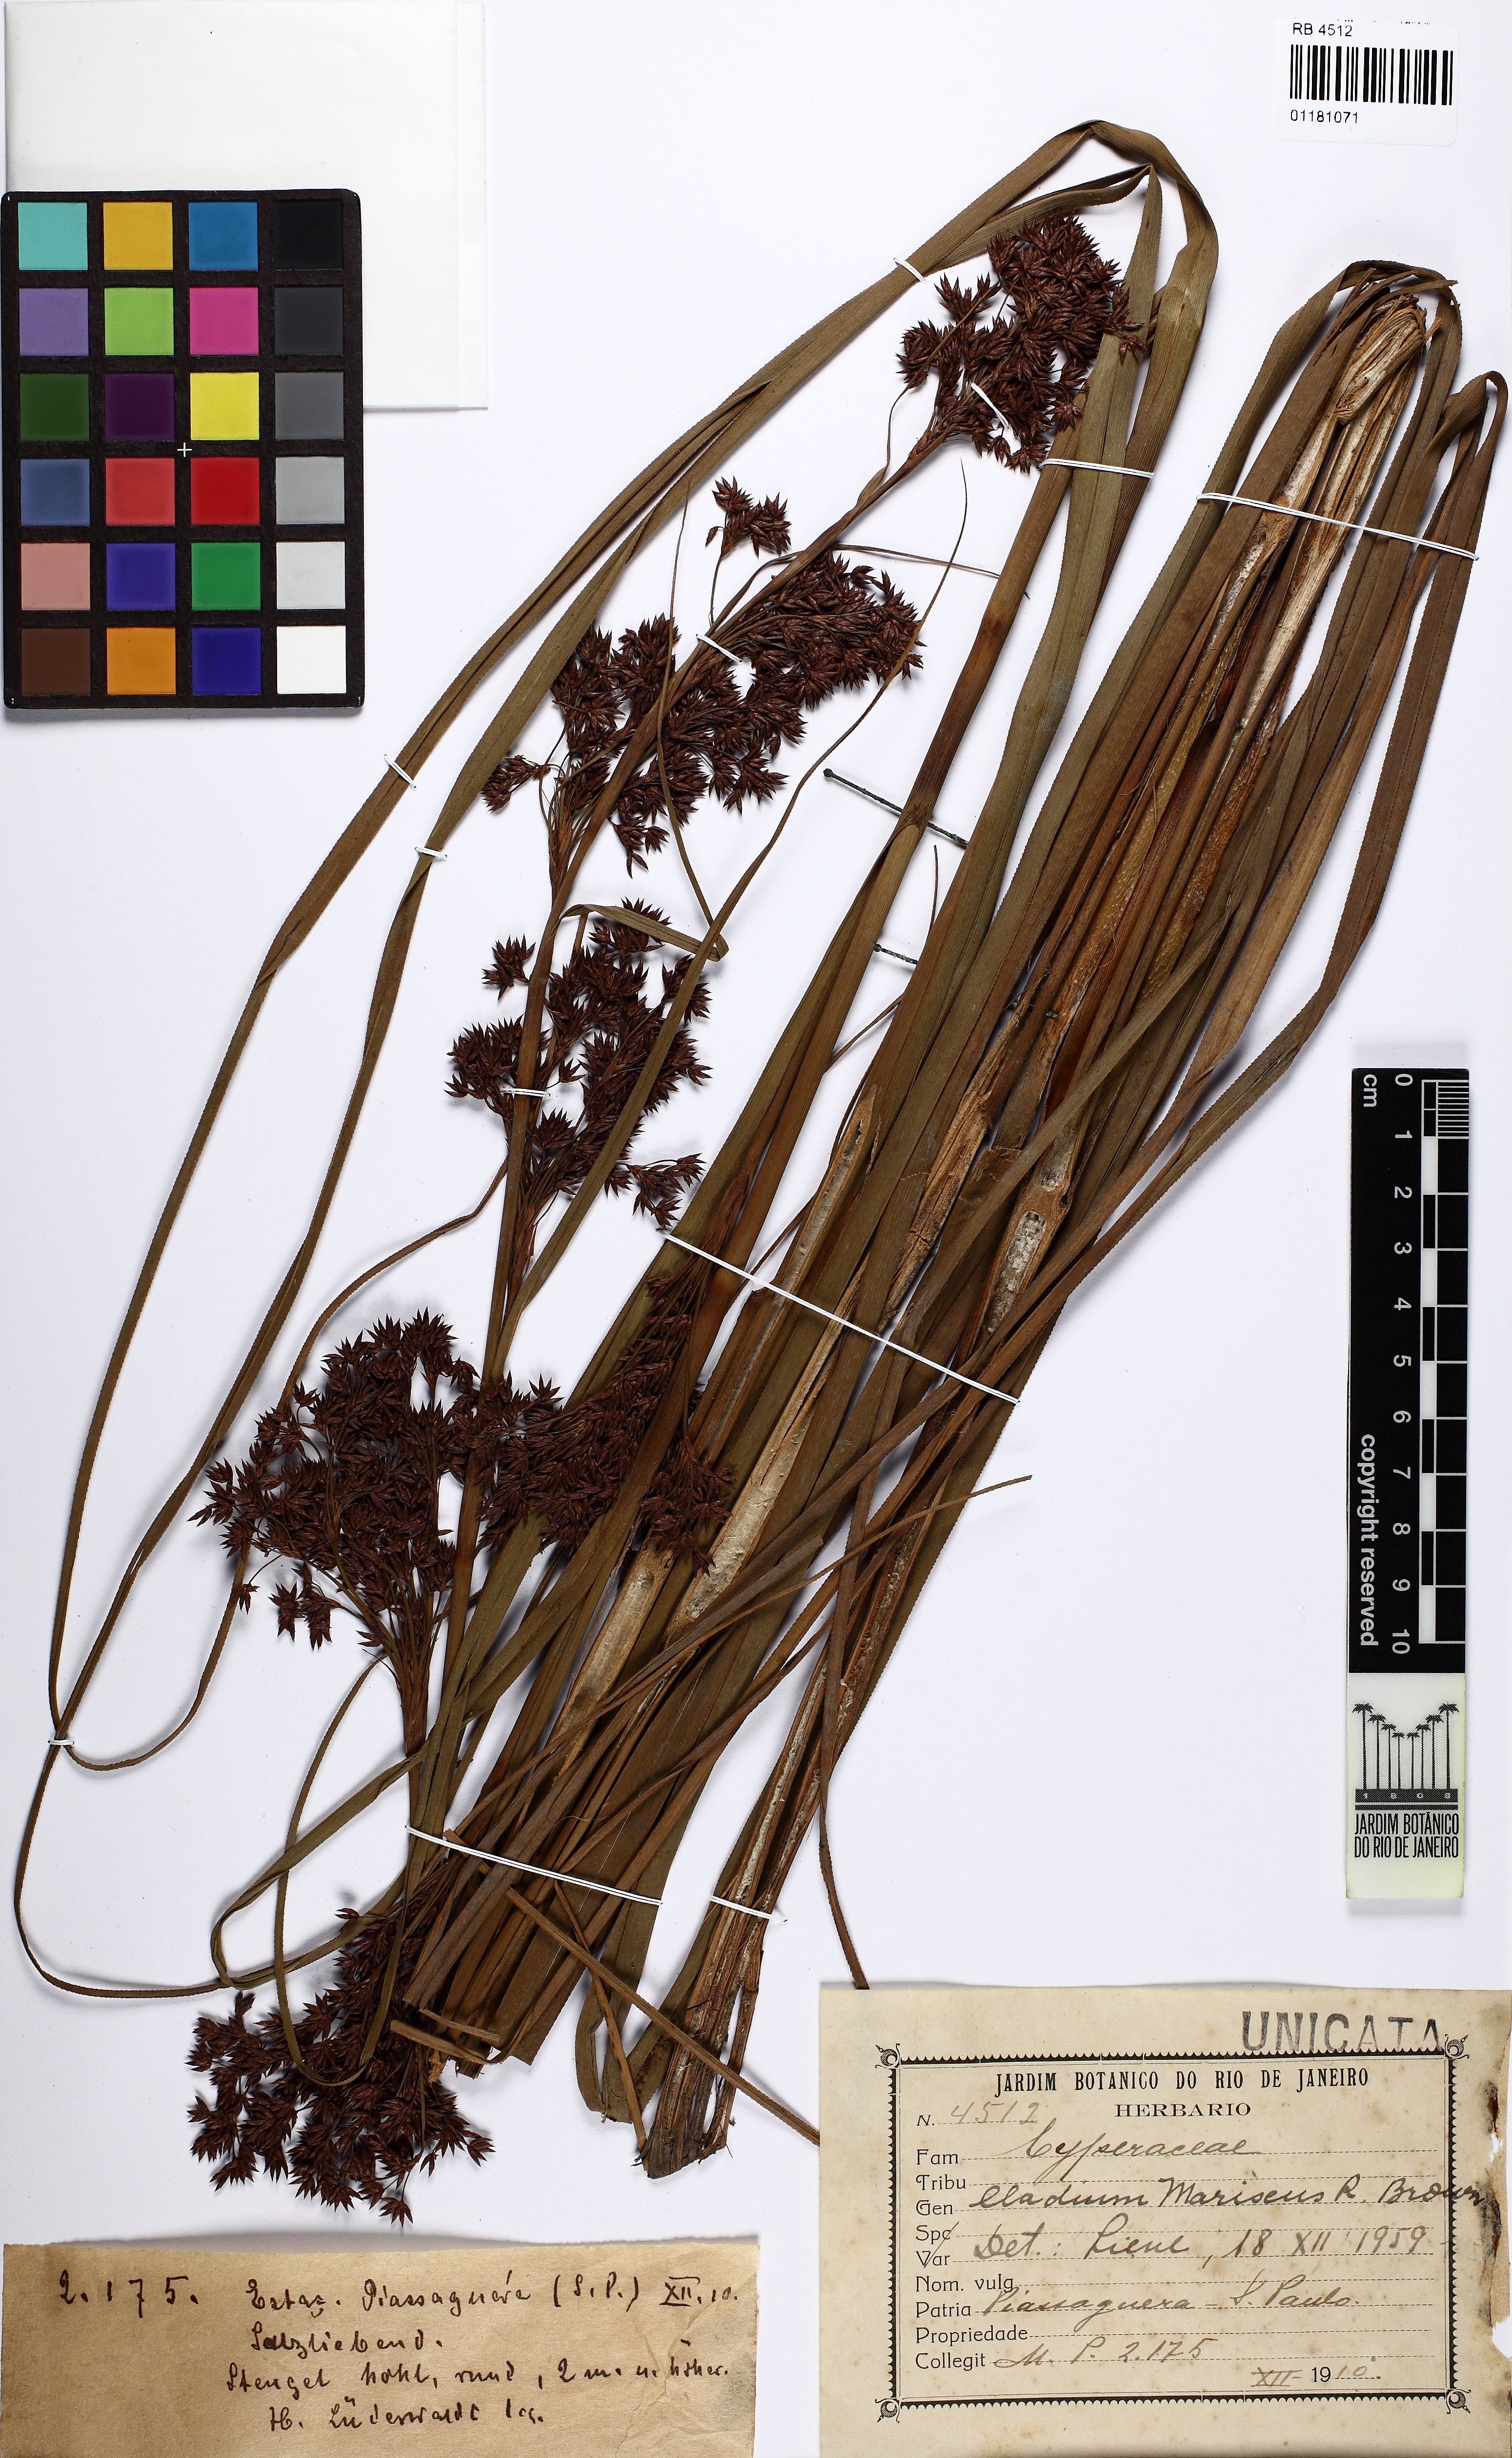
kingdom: Plantae
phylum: Tracheophyta
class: Liliopsida
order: Poales
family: Cyperaceae
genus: Cladium
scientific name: Cladium mariscus
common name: Great fen-sedge
